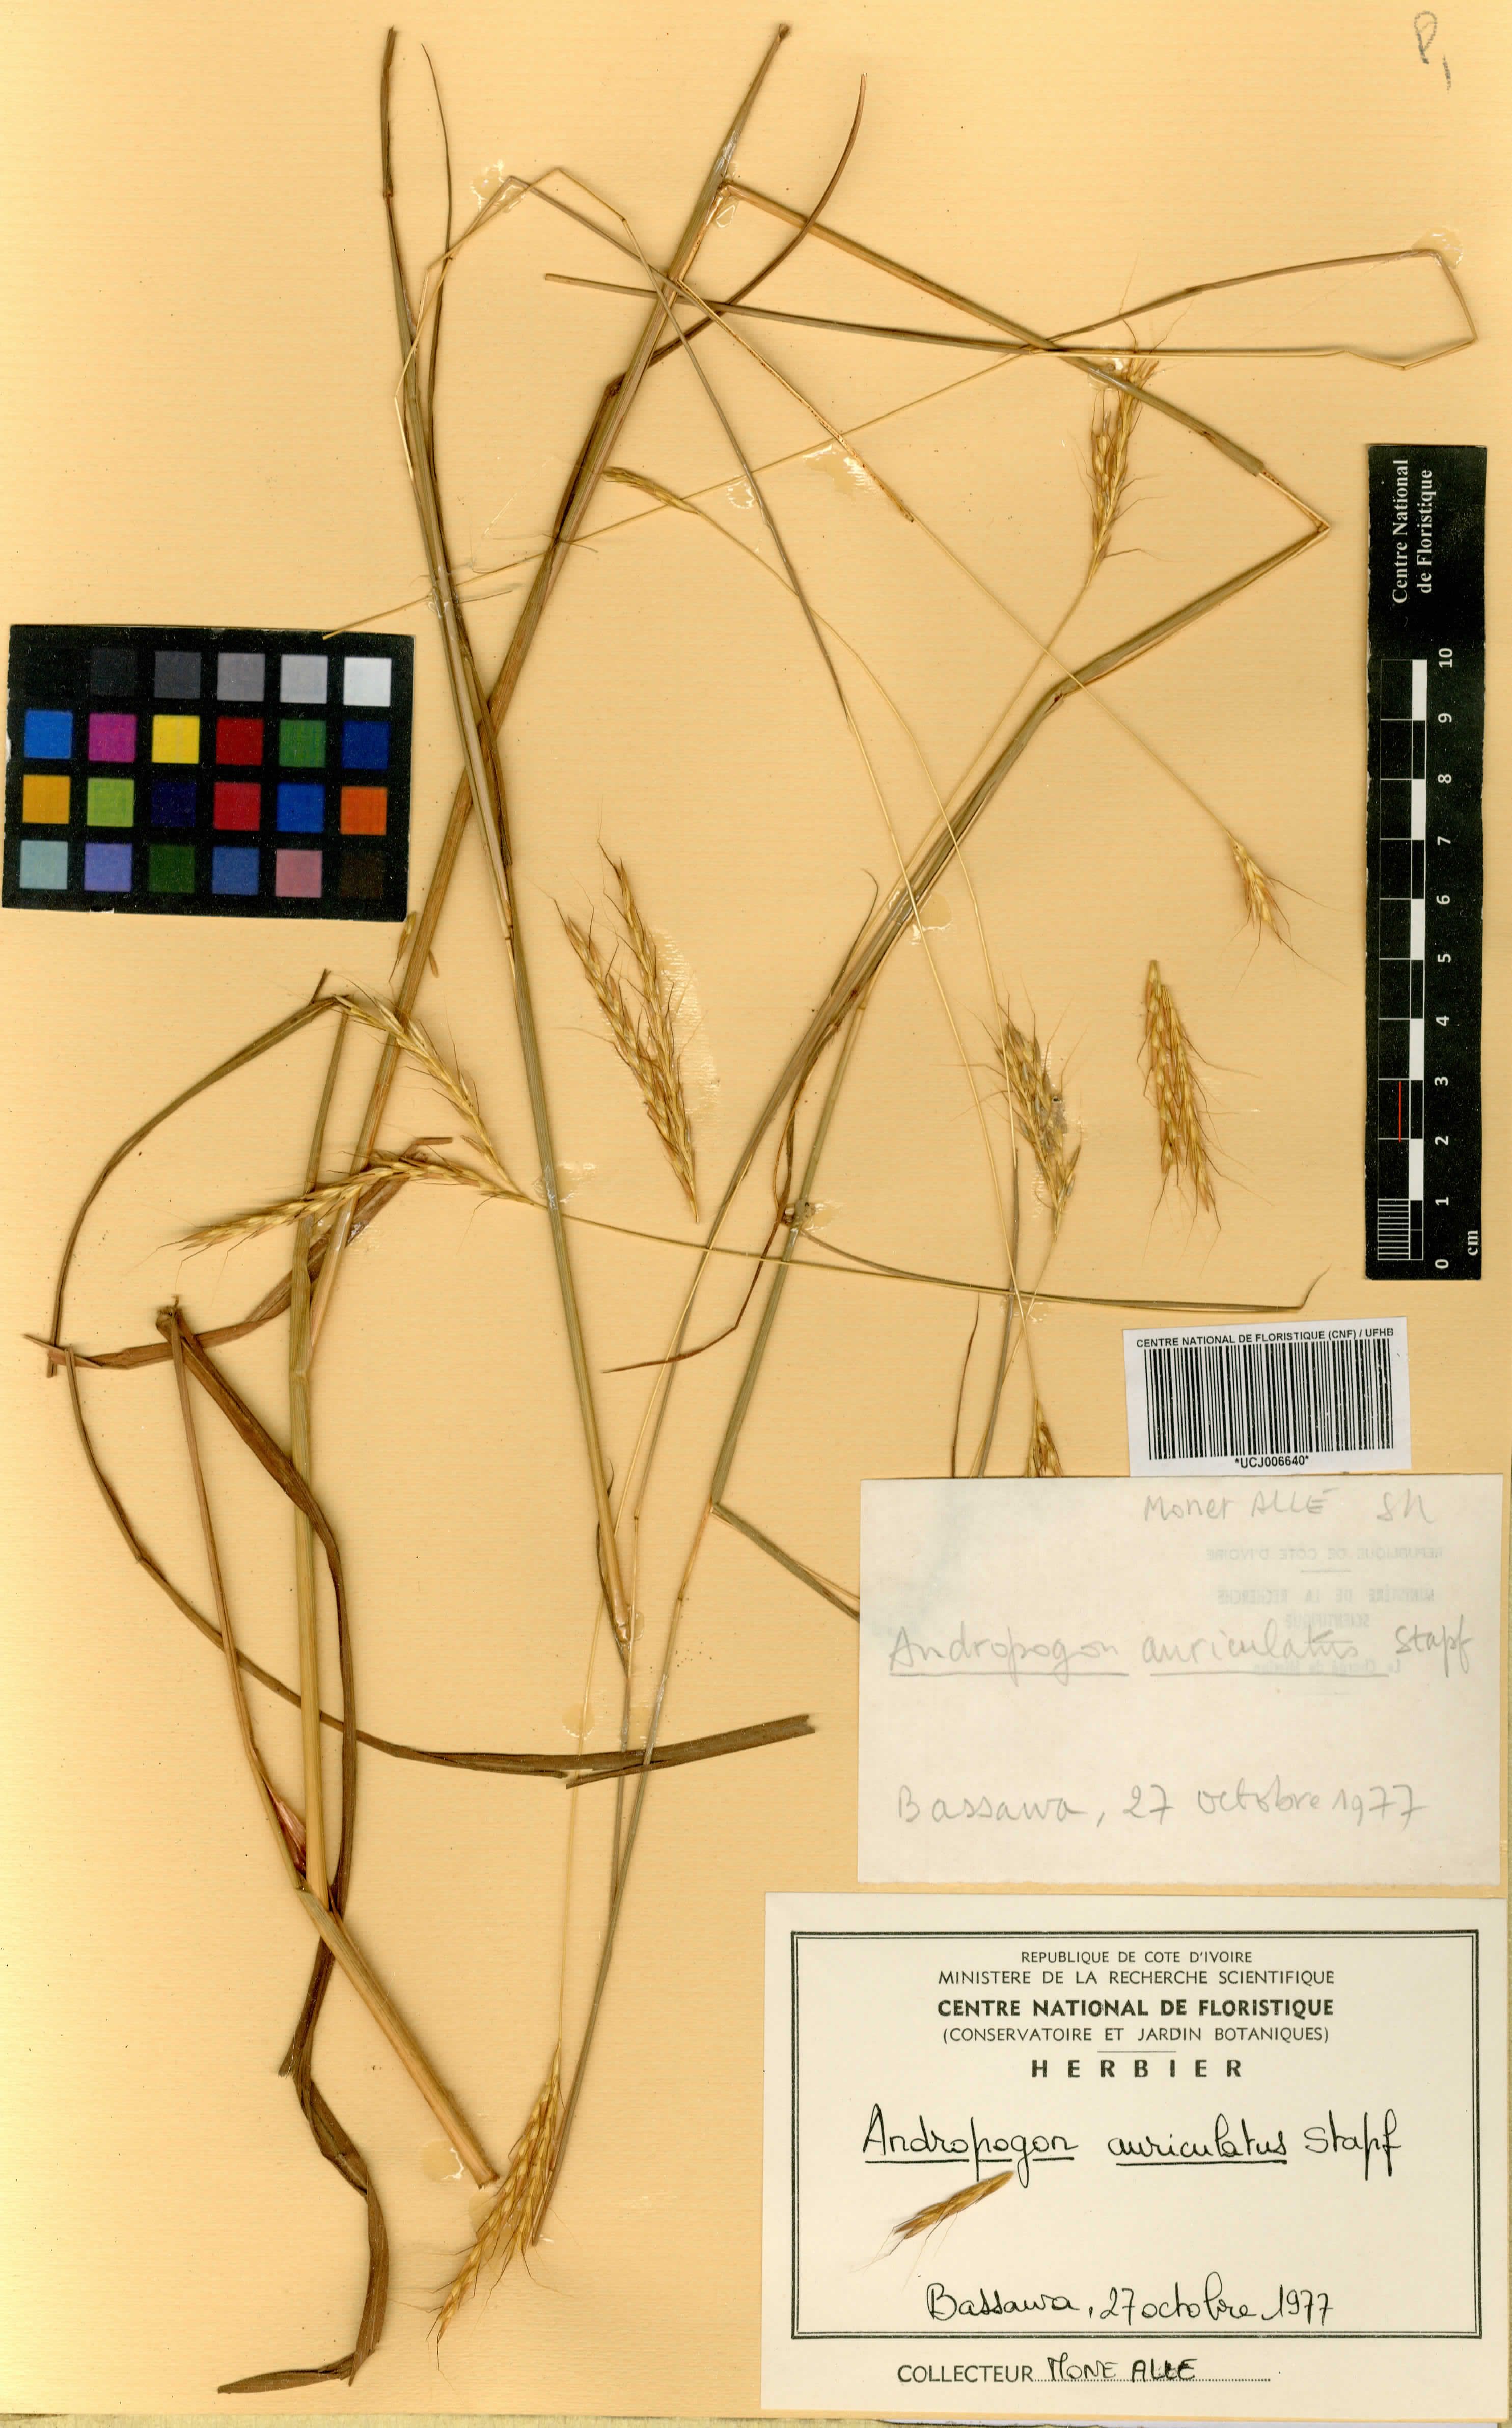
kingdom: Plantae
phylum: Tracheophyta
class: Liliopsida
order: Poales
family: Poaceae
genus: Andropogon
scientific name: Andropogon auriculatus
